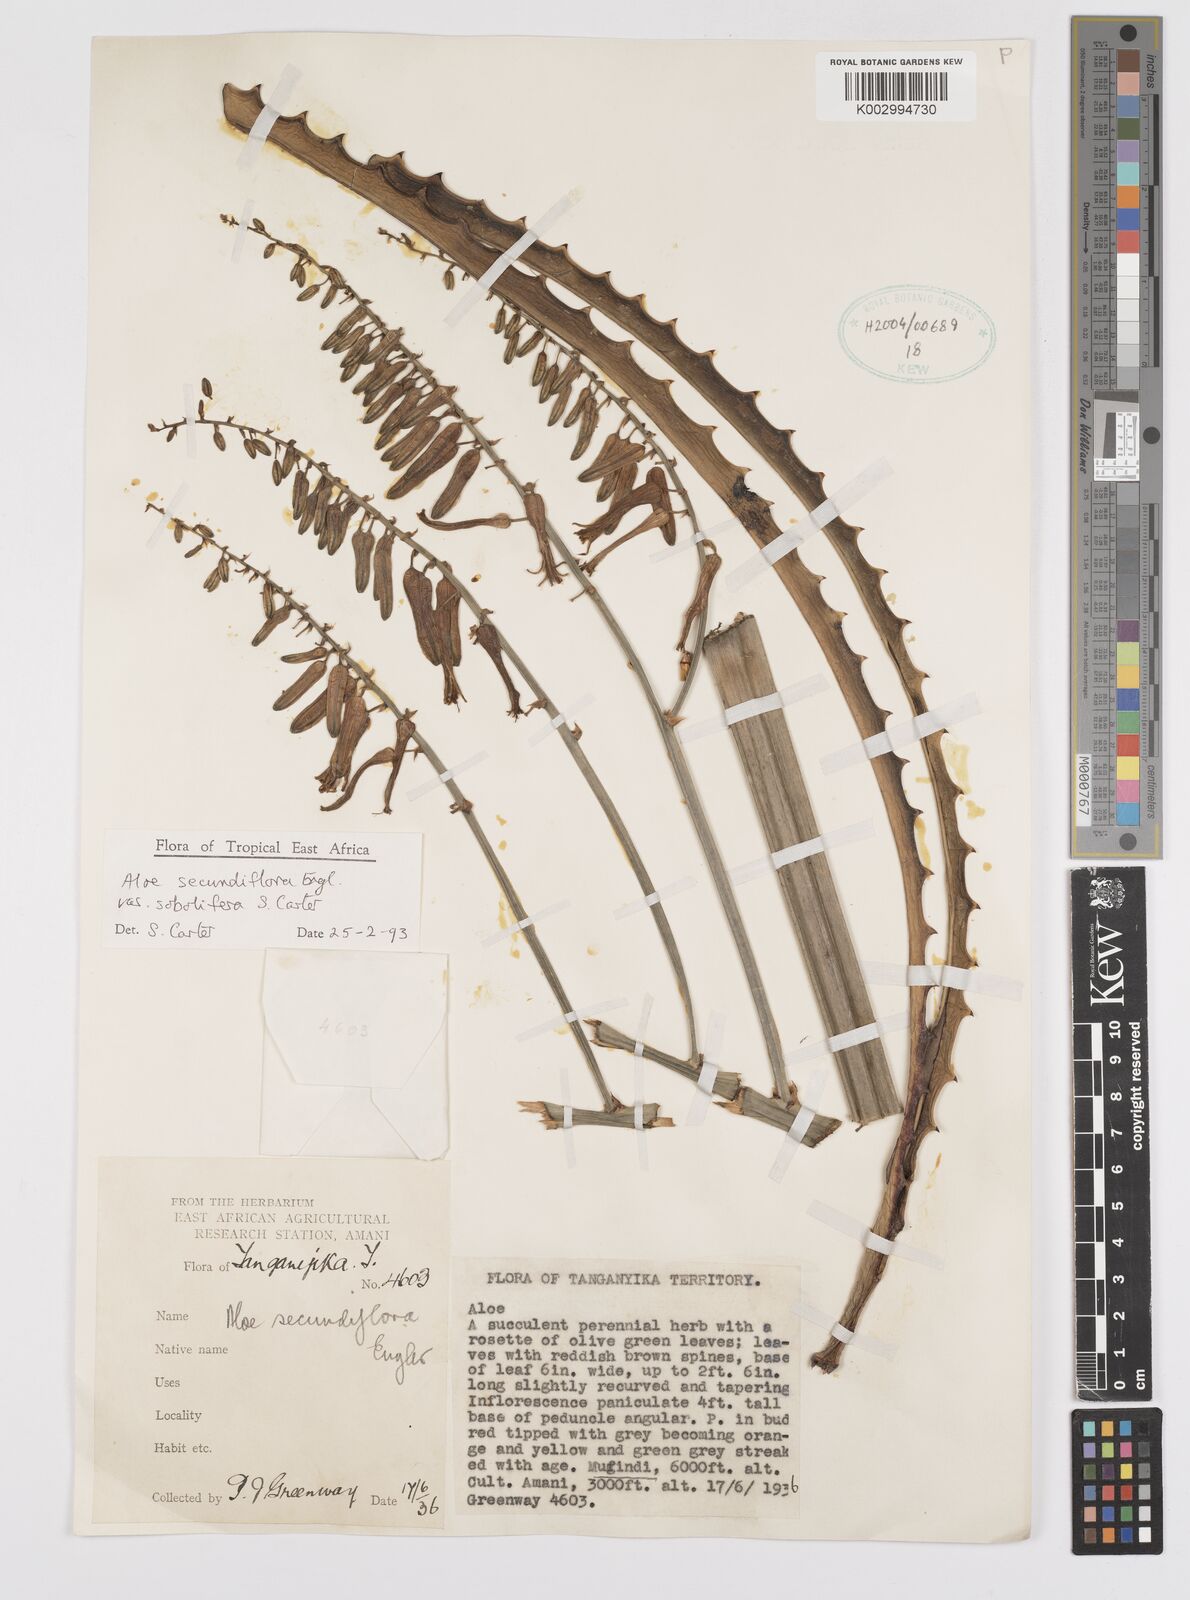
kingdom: Plantae
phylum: Tracheophyta
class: Liliopsida
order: Asparagales
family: Asphodelaceae
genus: Aloe
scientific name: Aloe sobolifera
